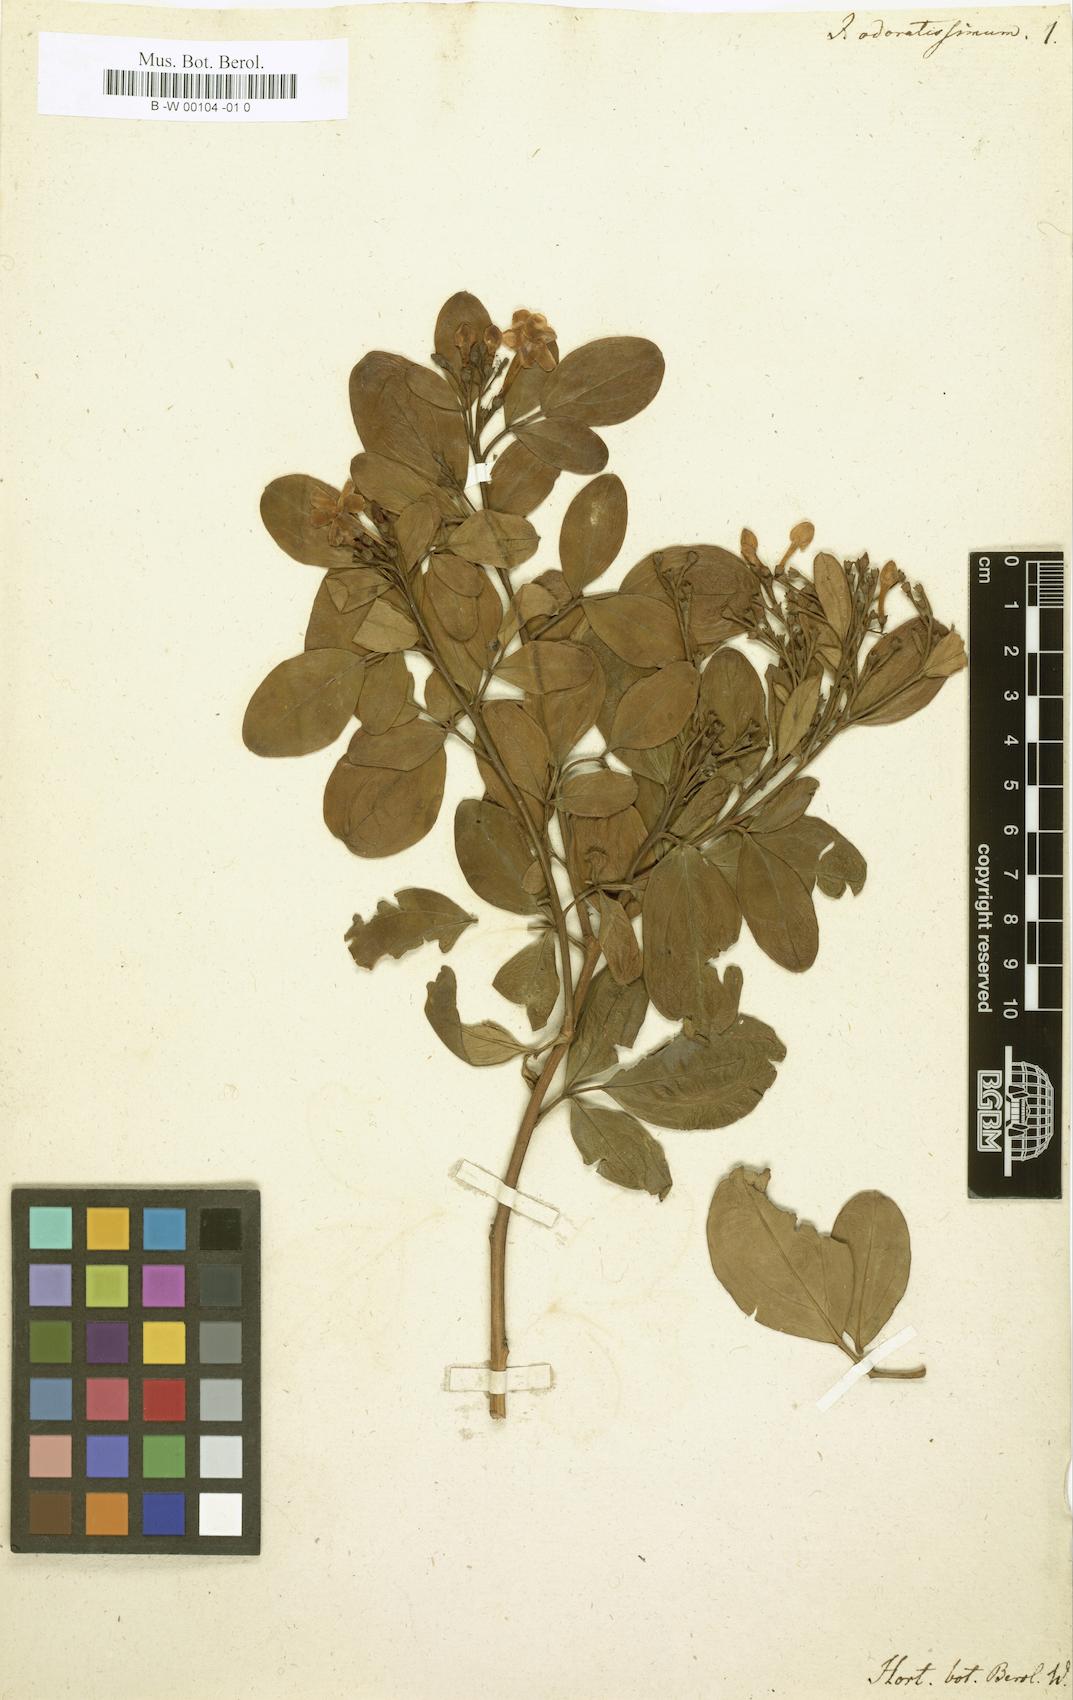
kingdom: Plantae
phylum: Tracheophyta
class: Magnoliopsida
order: Lamiales
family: Oleaceae
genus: Chrysojasminum
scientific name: Chrysojasminum odoratissimum
